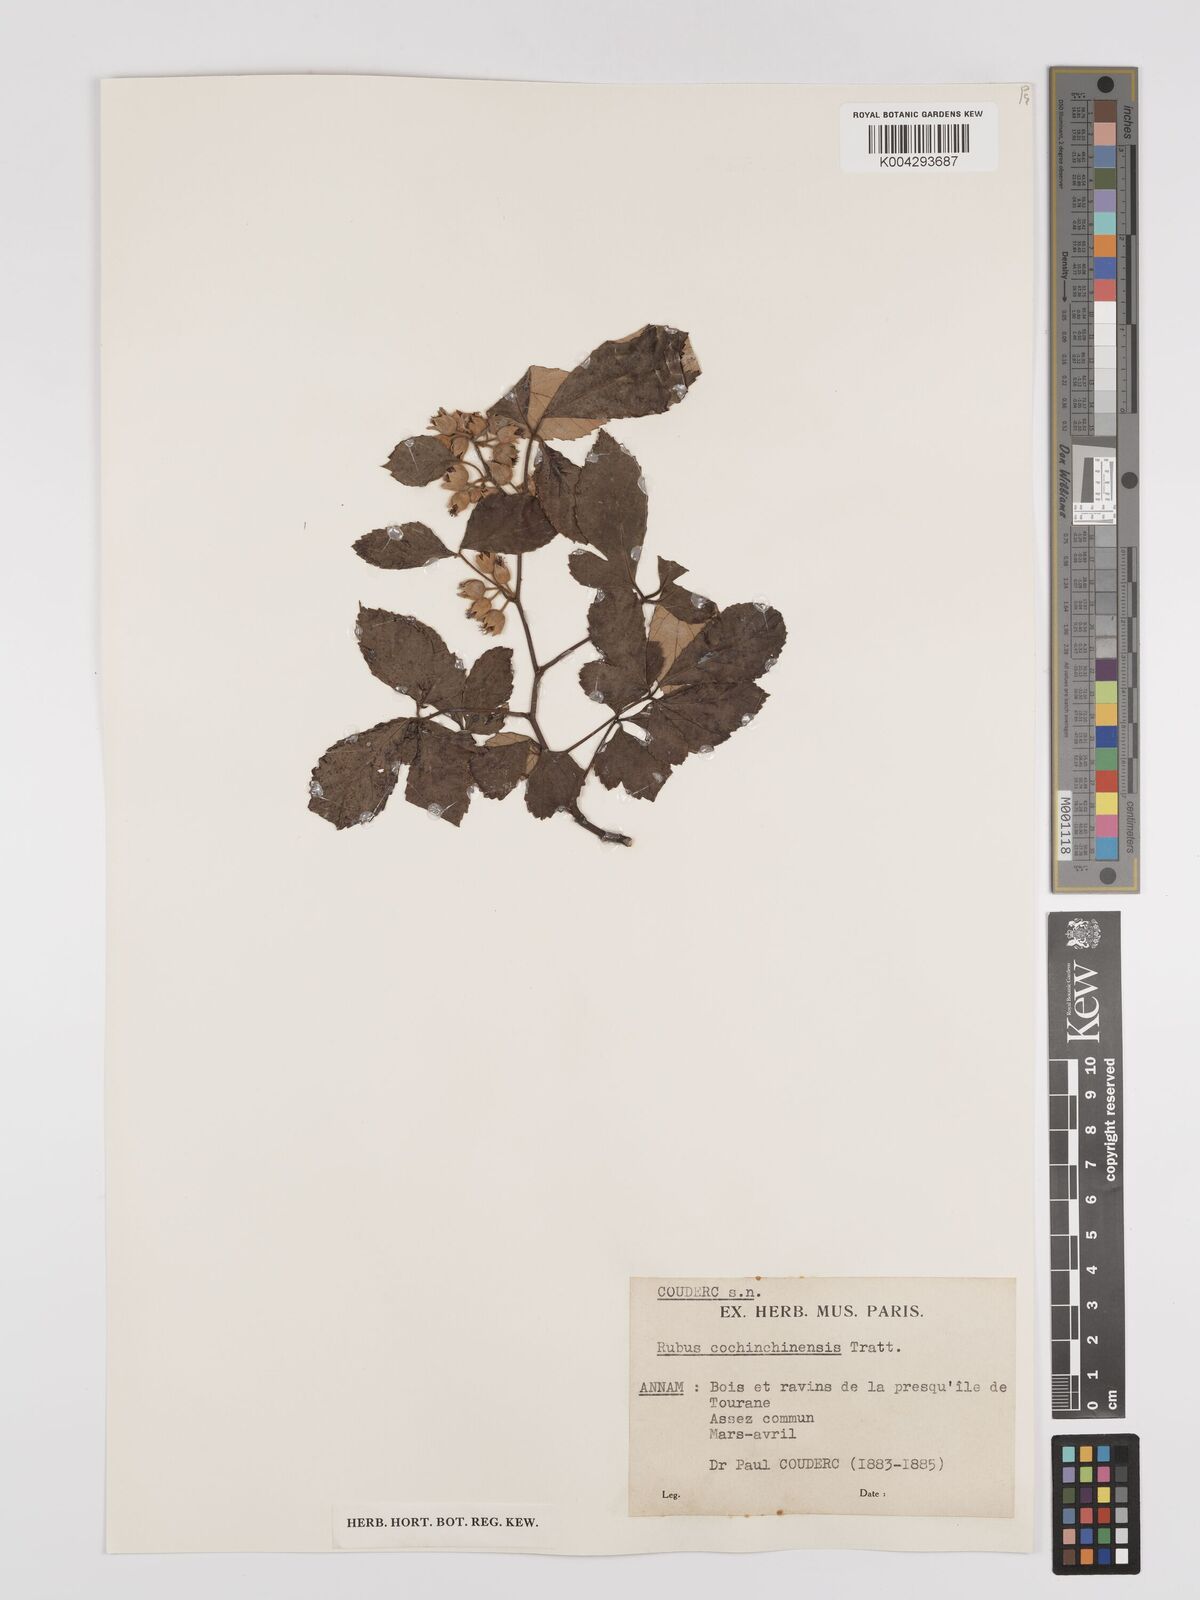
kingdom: Plantae
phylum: Tracheophyta
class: Magnoliopsida
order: Rosales
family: Rosaceae
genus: Rubus
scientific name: Rubus cochinchinensis
